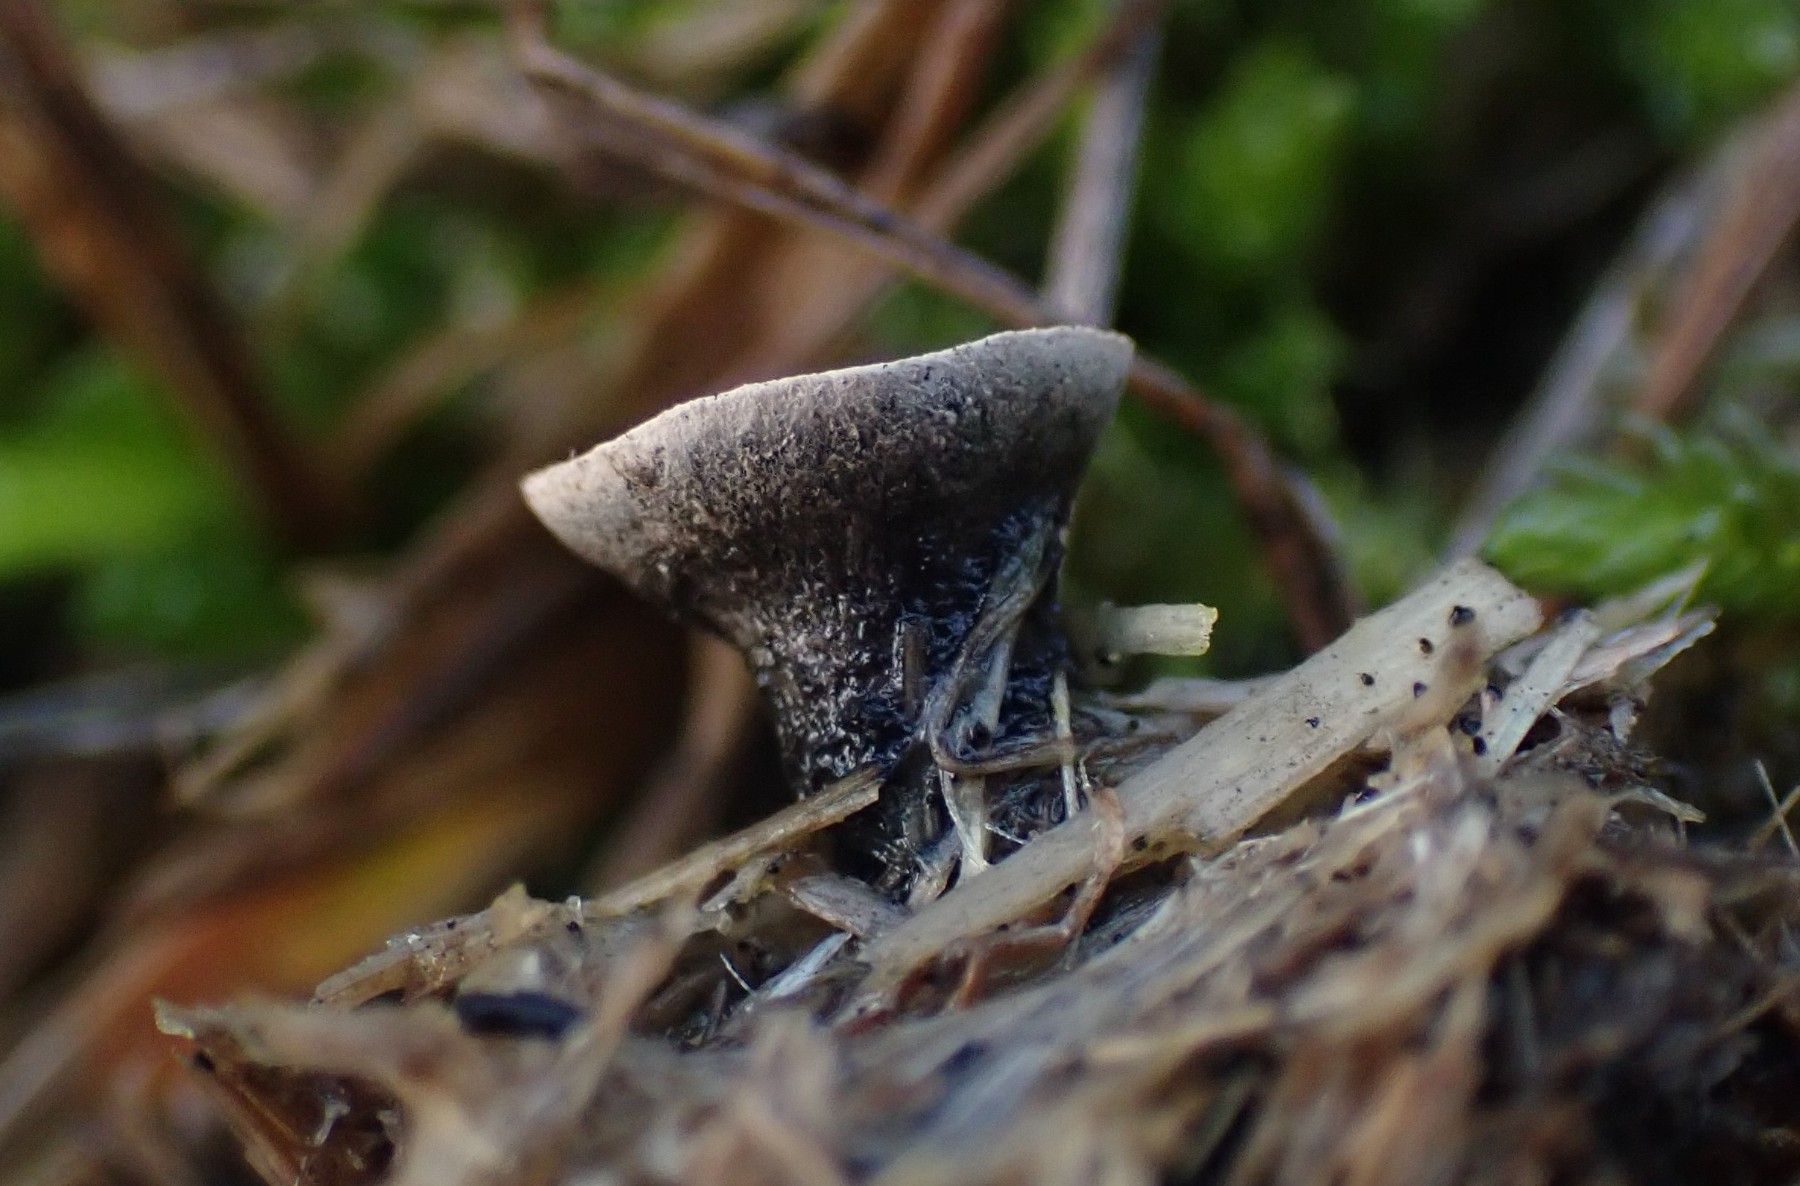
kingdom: Fungi
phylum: Ascomycota
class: Sordariomycetes
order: Xylariales
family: Xylariaceae
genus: Poronia
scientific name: Poronia punctata
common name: stor priksvamp
